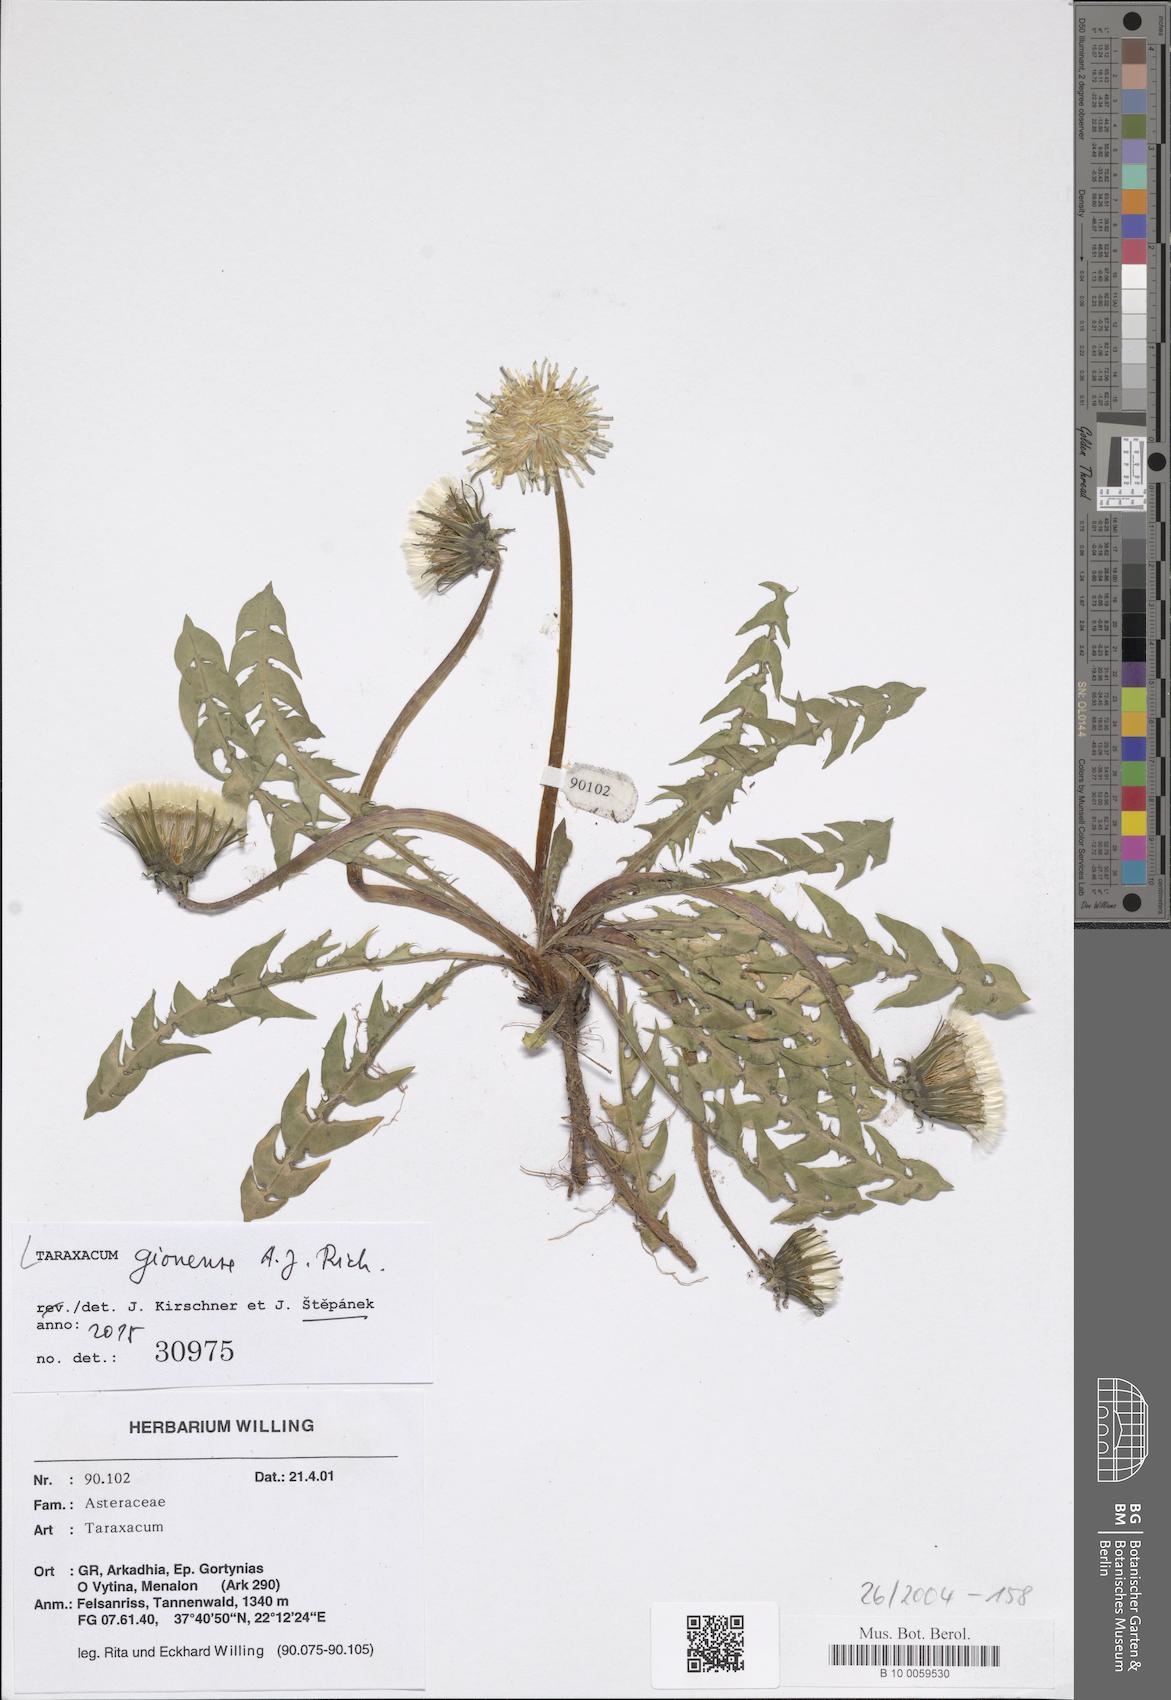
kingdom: Plantae
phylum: Tracheophyta
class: Magnoliopsida
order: Asterales
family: Asteraceae
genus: Taraxacum
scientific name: Taraxacum botanicorum
